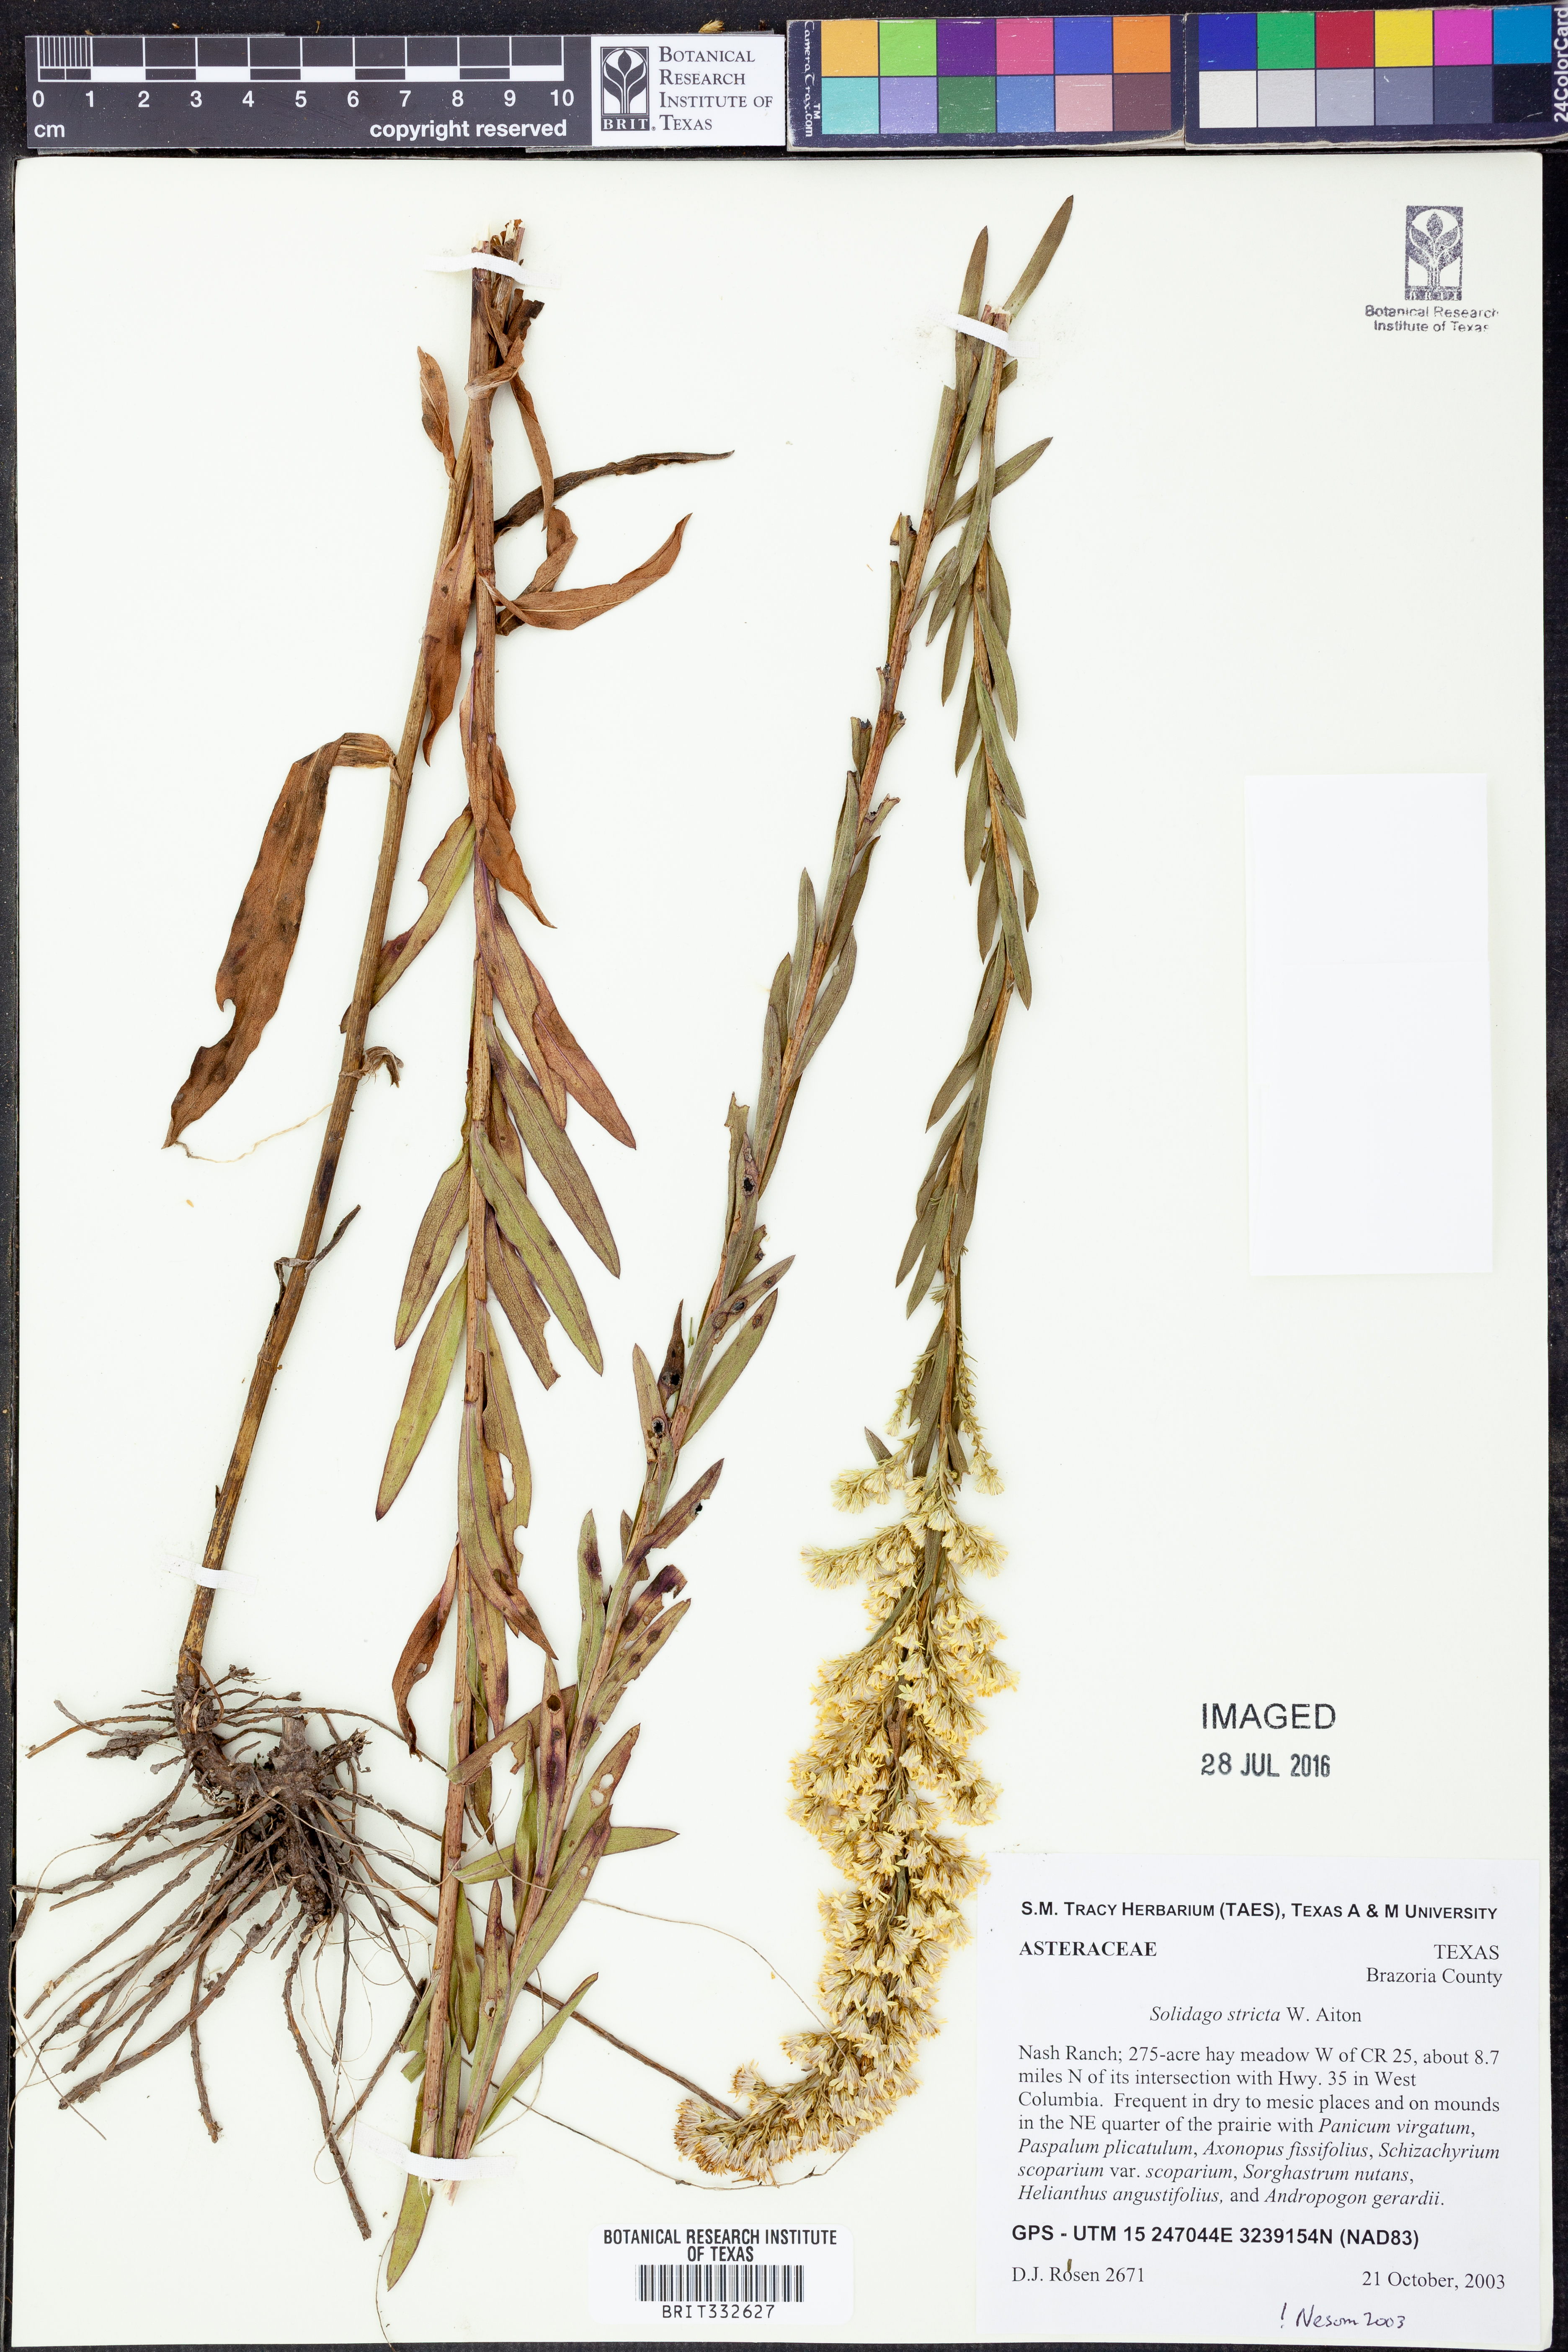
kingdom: Plantae
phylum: Tracheophyta
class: Magnoliopsida
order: Asterales
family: Asteraceae
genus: Solidago
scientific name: Solidago stricta
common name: Pine barren bog goldenrod
